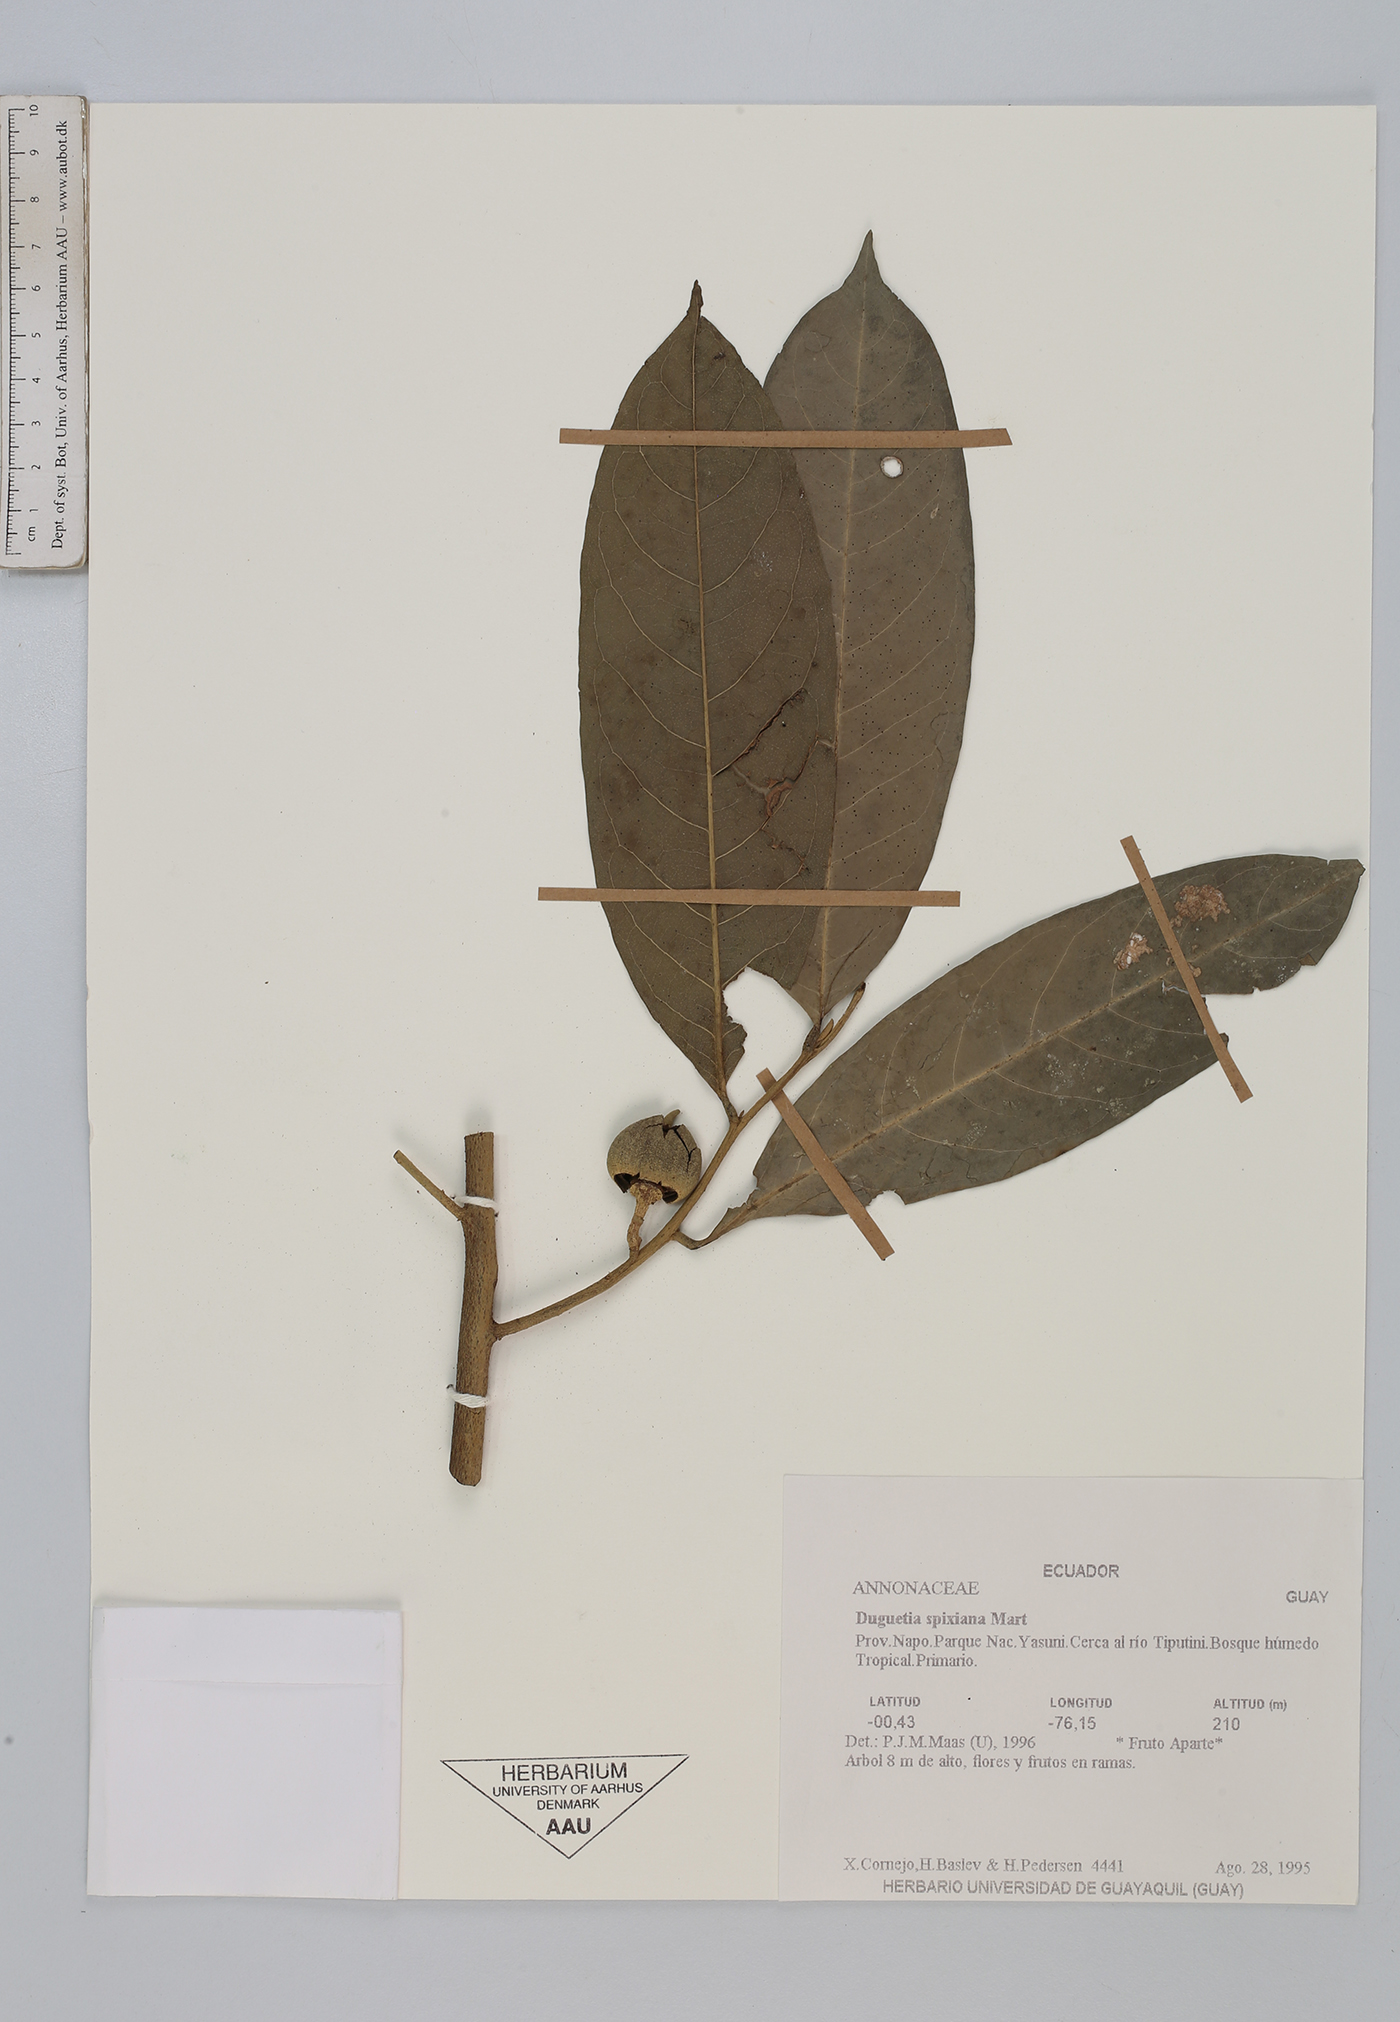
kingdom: Plantae
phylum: Tracheophyta
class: Magnoliopsida
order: Magnoliales
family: Annonaceae
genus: Duguetia
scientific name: Duguetia spixiana
